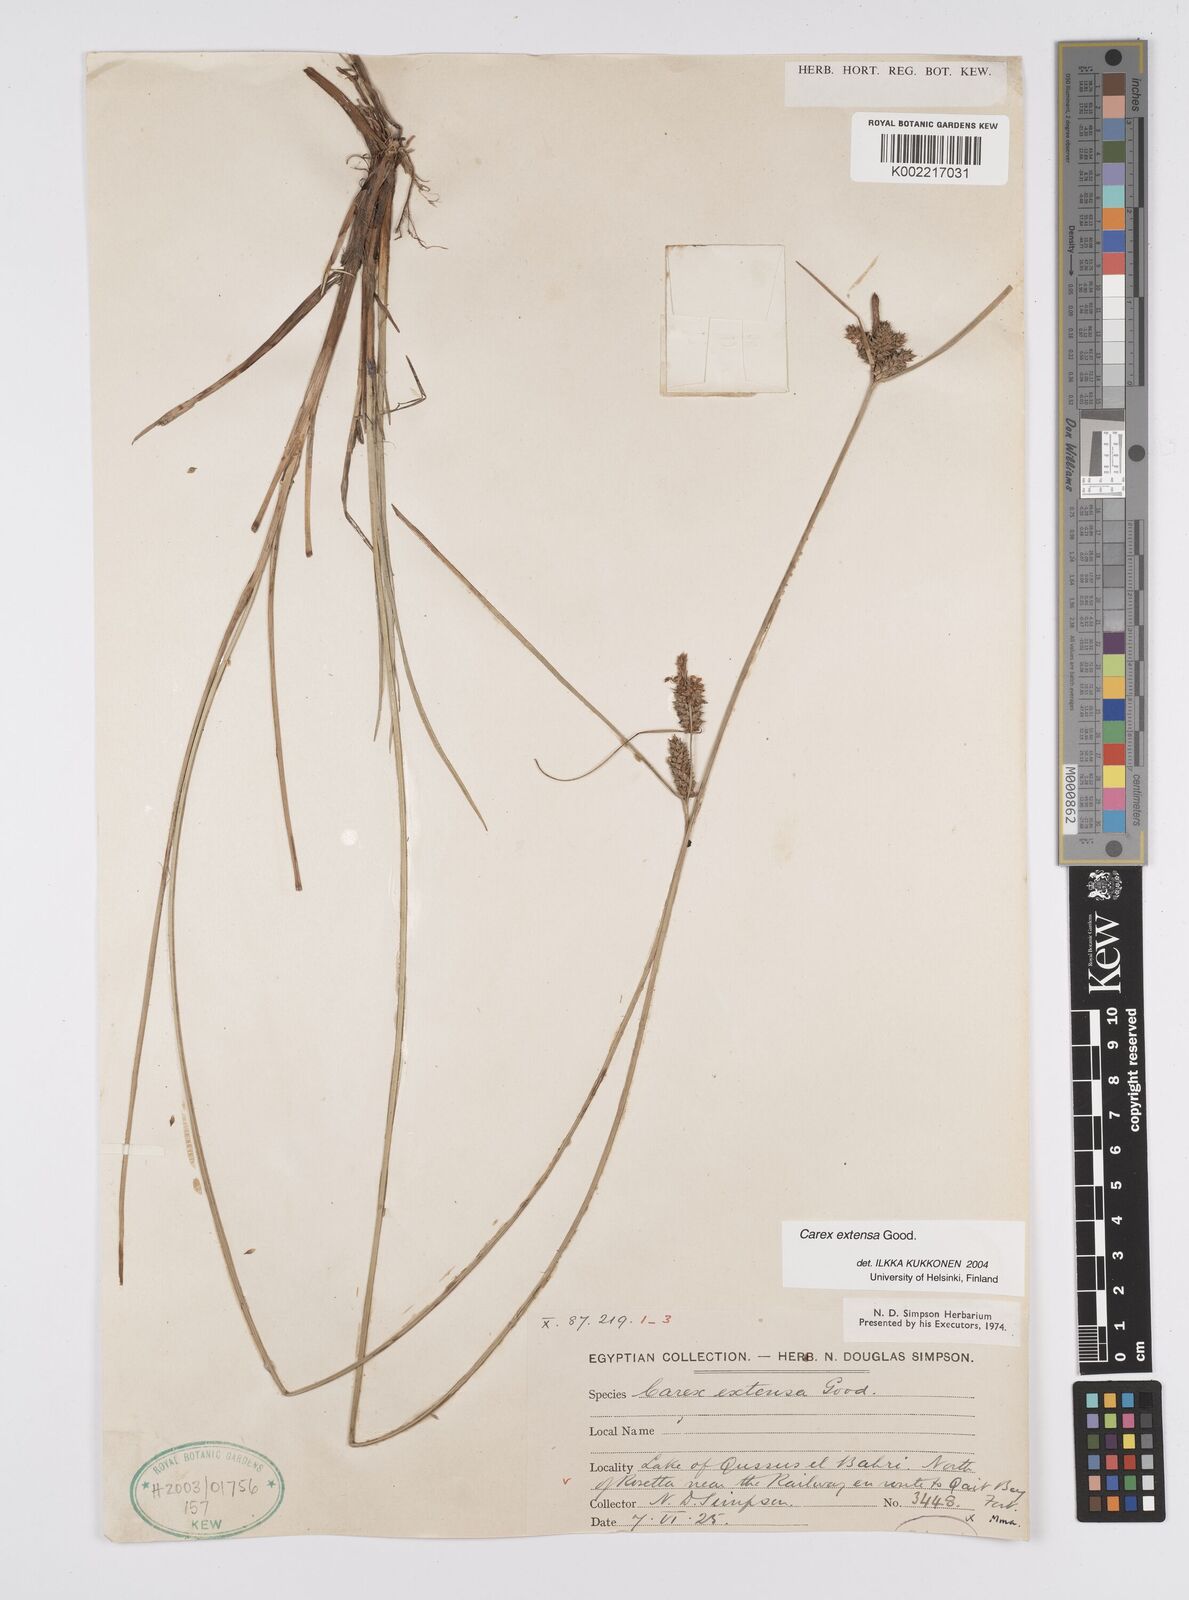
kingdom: Plantae
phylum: Tracheophyta
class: Liliopsida
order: Poales
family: Cyperaceae
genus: Carex
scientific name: Carex extensa
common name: Long-bracted sedge
